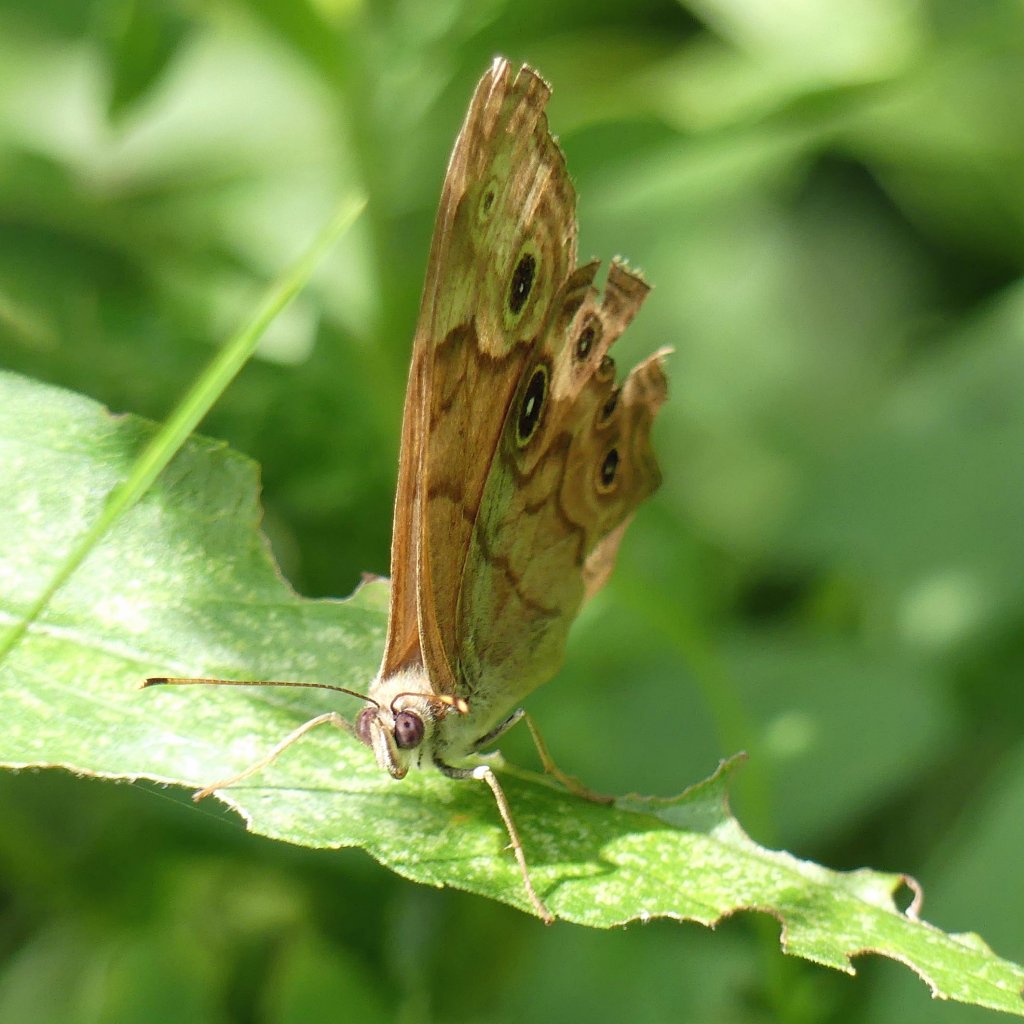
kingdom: Animalia
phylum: Arthropoda
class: Insecta
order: Lepidoptera
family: Nymphalidae
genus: Lethe
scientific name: Lethe anthedon
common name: Northern Pearly-Eye
